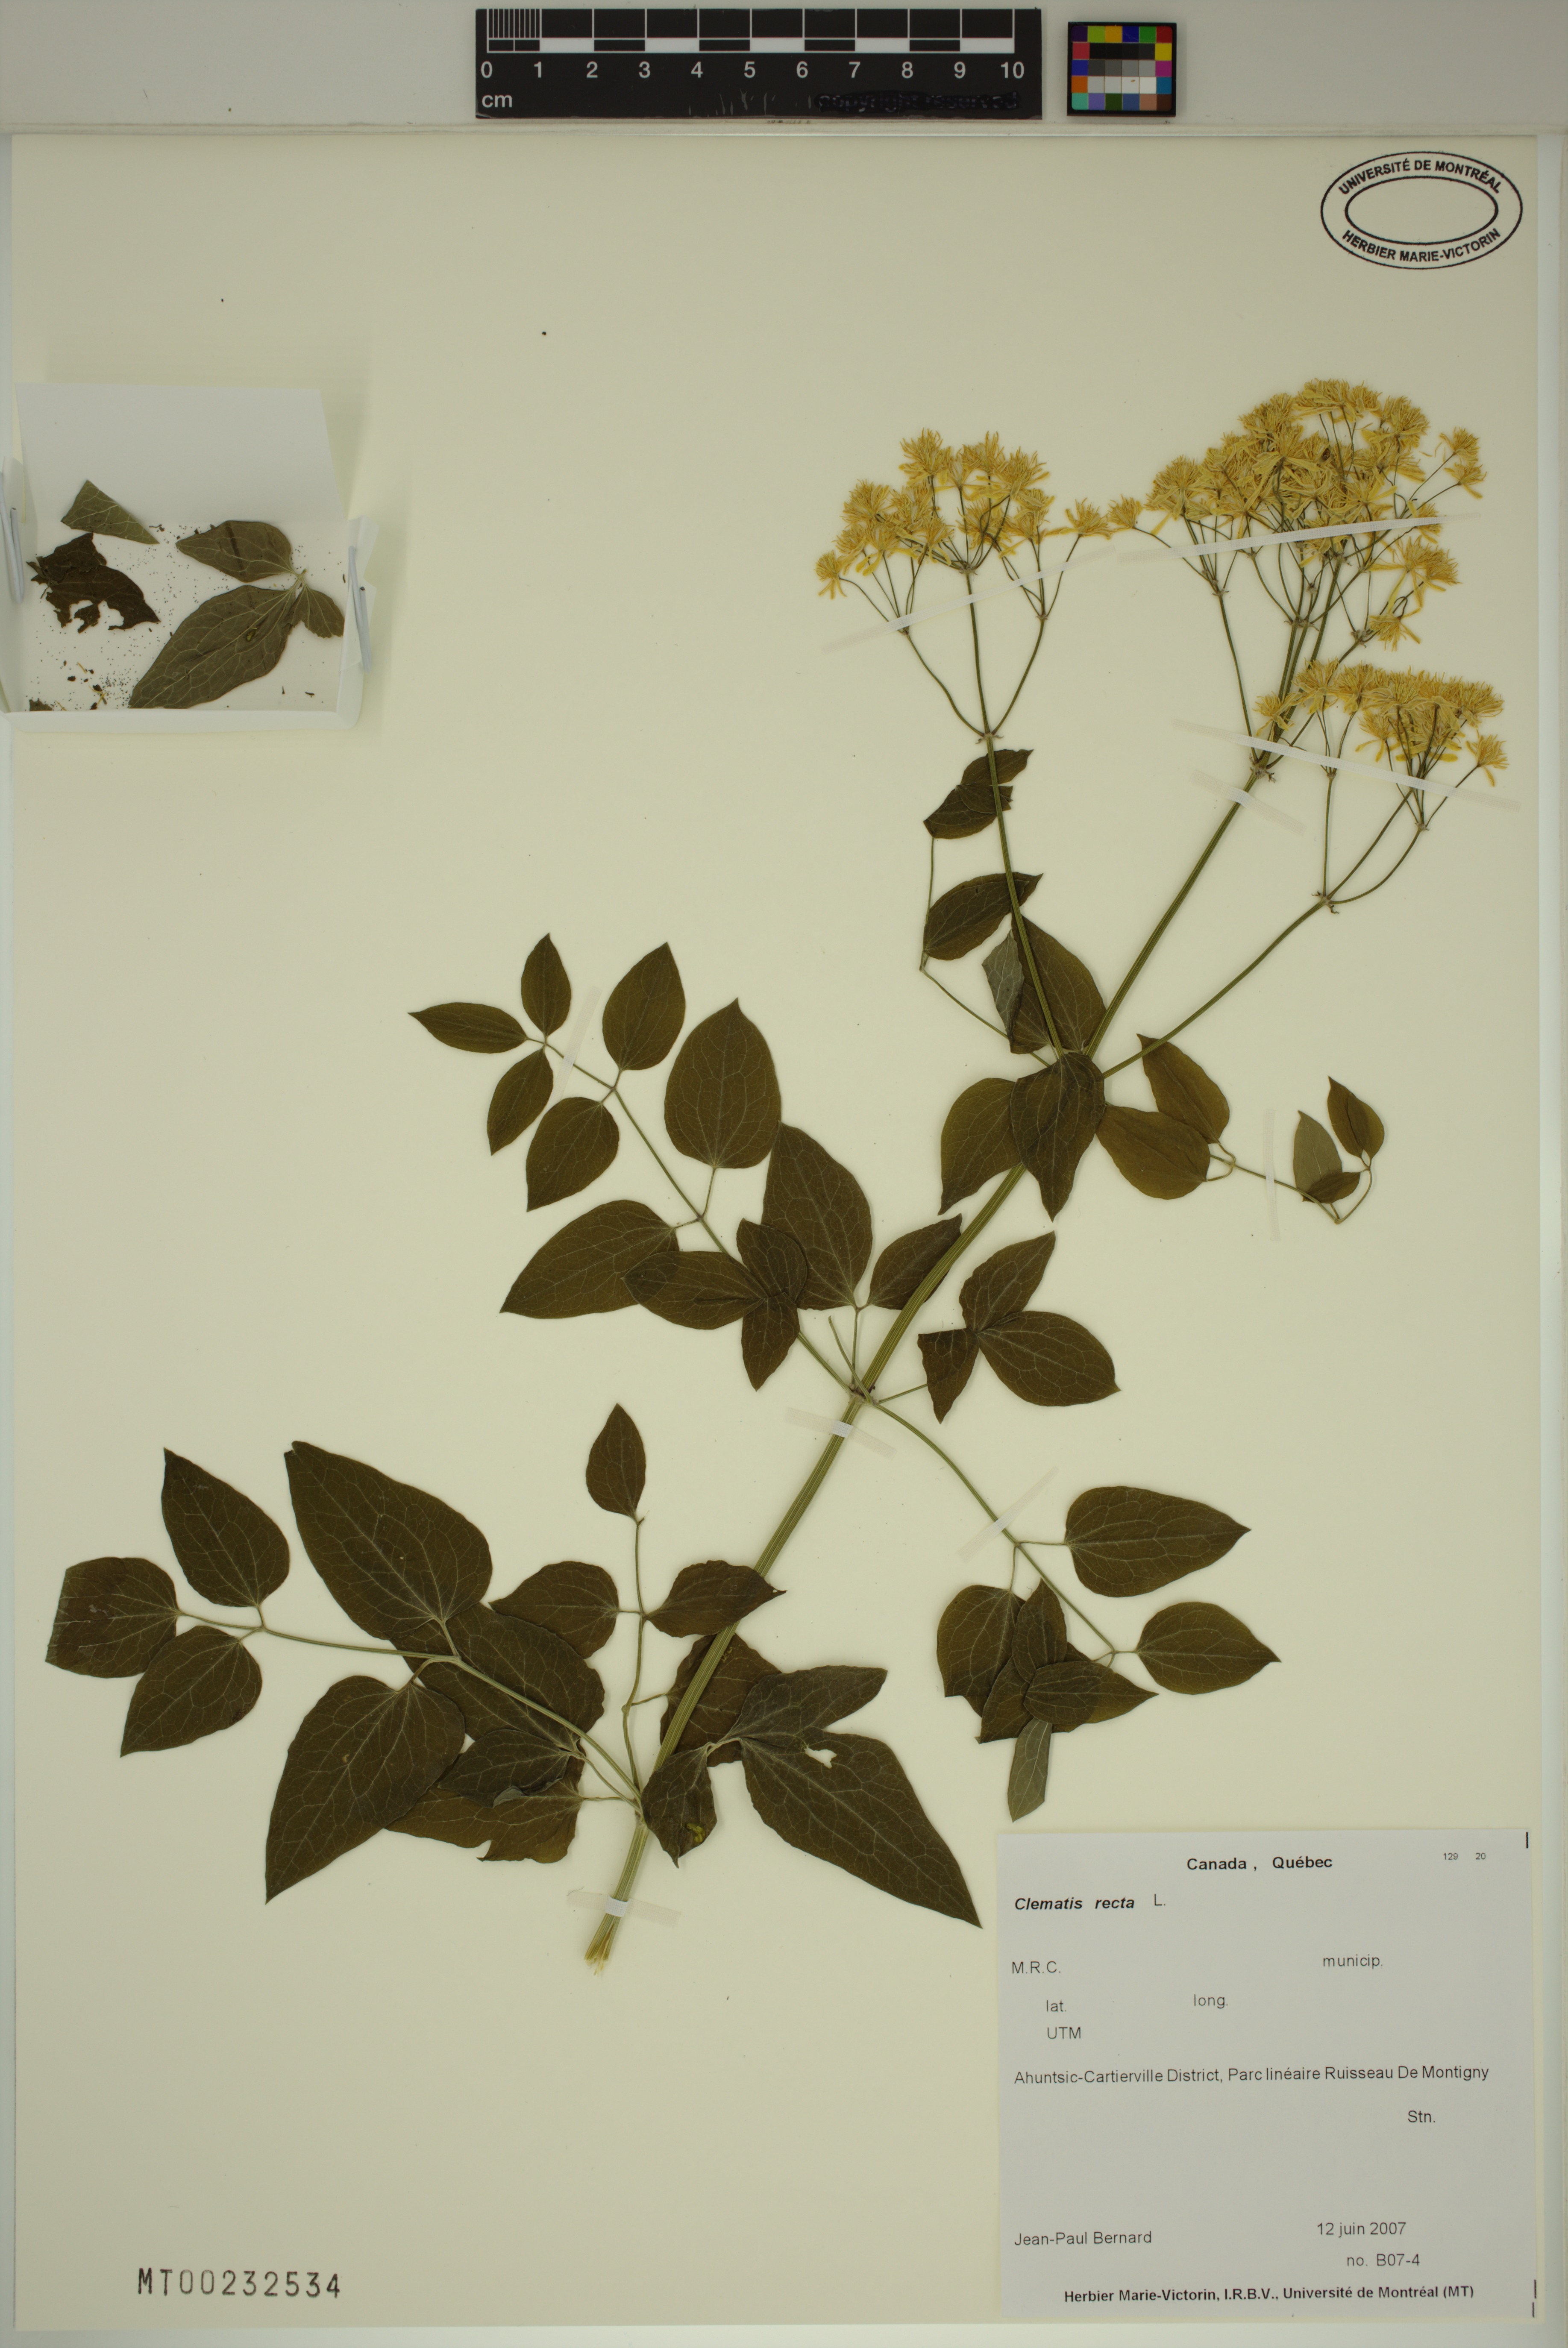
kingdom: Plantae
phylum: Tracheophyta
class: Magnoliopsida
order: Ranunculales
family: Ranunculaceae
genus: Clematis
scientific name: Clematis recta
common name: Ground clematis
